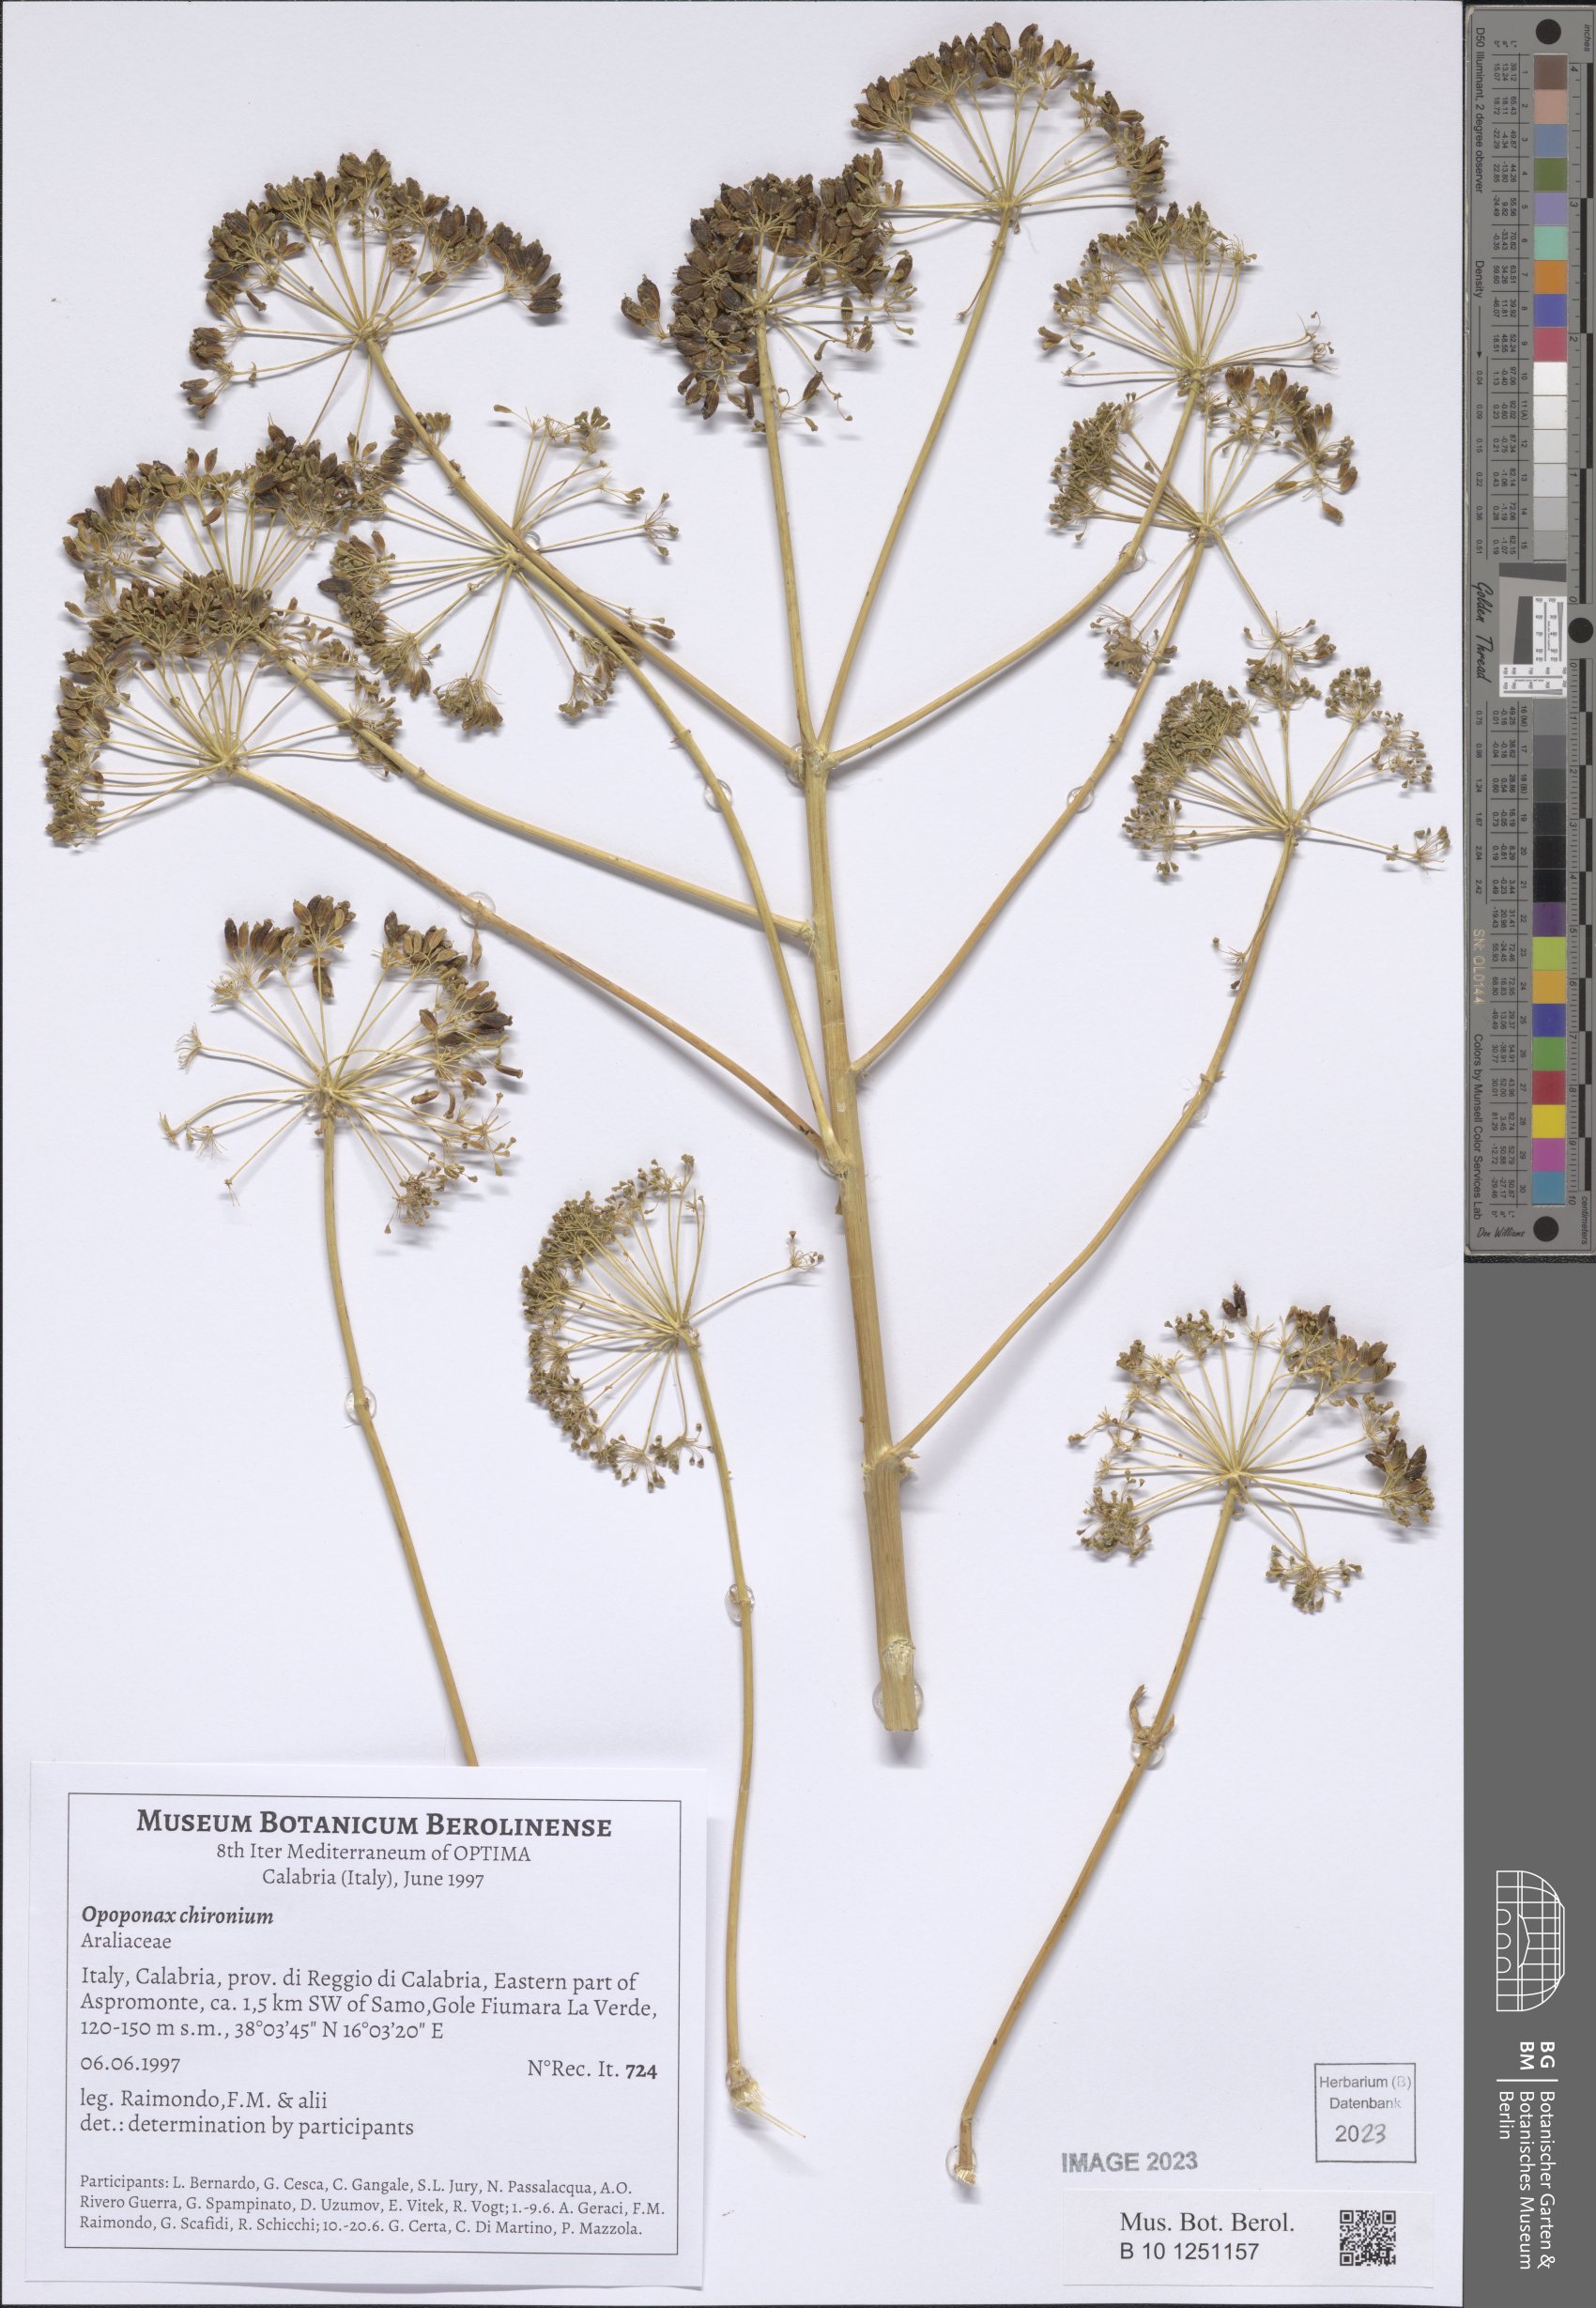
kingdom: Plantae
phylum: Tracheophyta
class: Magnoliopsida
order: Apiales
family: Apiaceae
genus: Opopanax
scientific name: Opopanax chironium
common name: Hercules-all-heal
